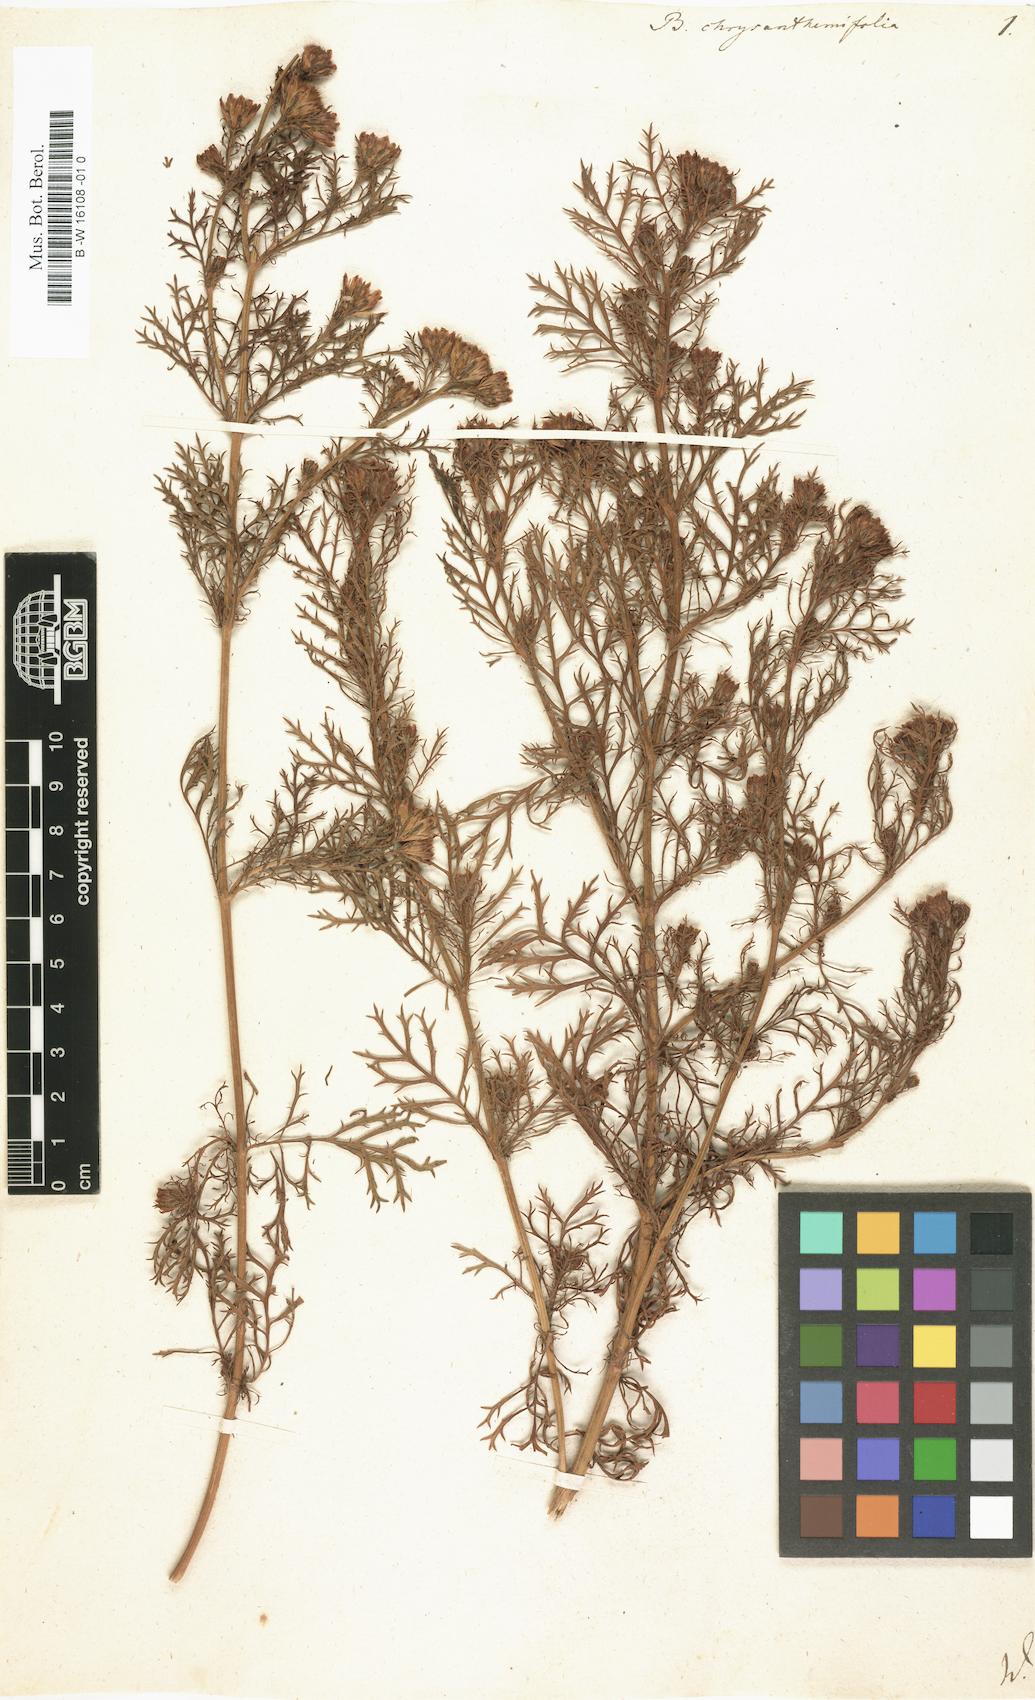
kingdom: Plantae
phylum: Tracheophyta
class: Magnoliopsida
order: Asterales
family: Asteraceae
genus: Dyssodia
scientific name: Dyssodia papposa
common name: Dogweed
